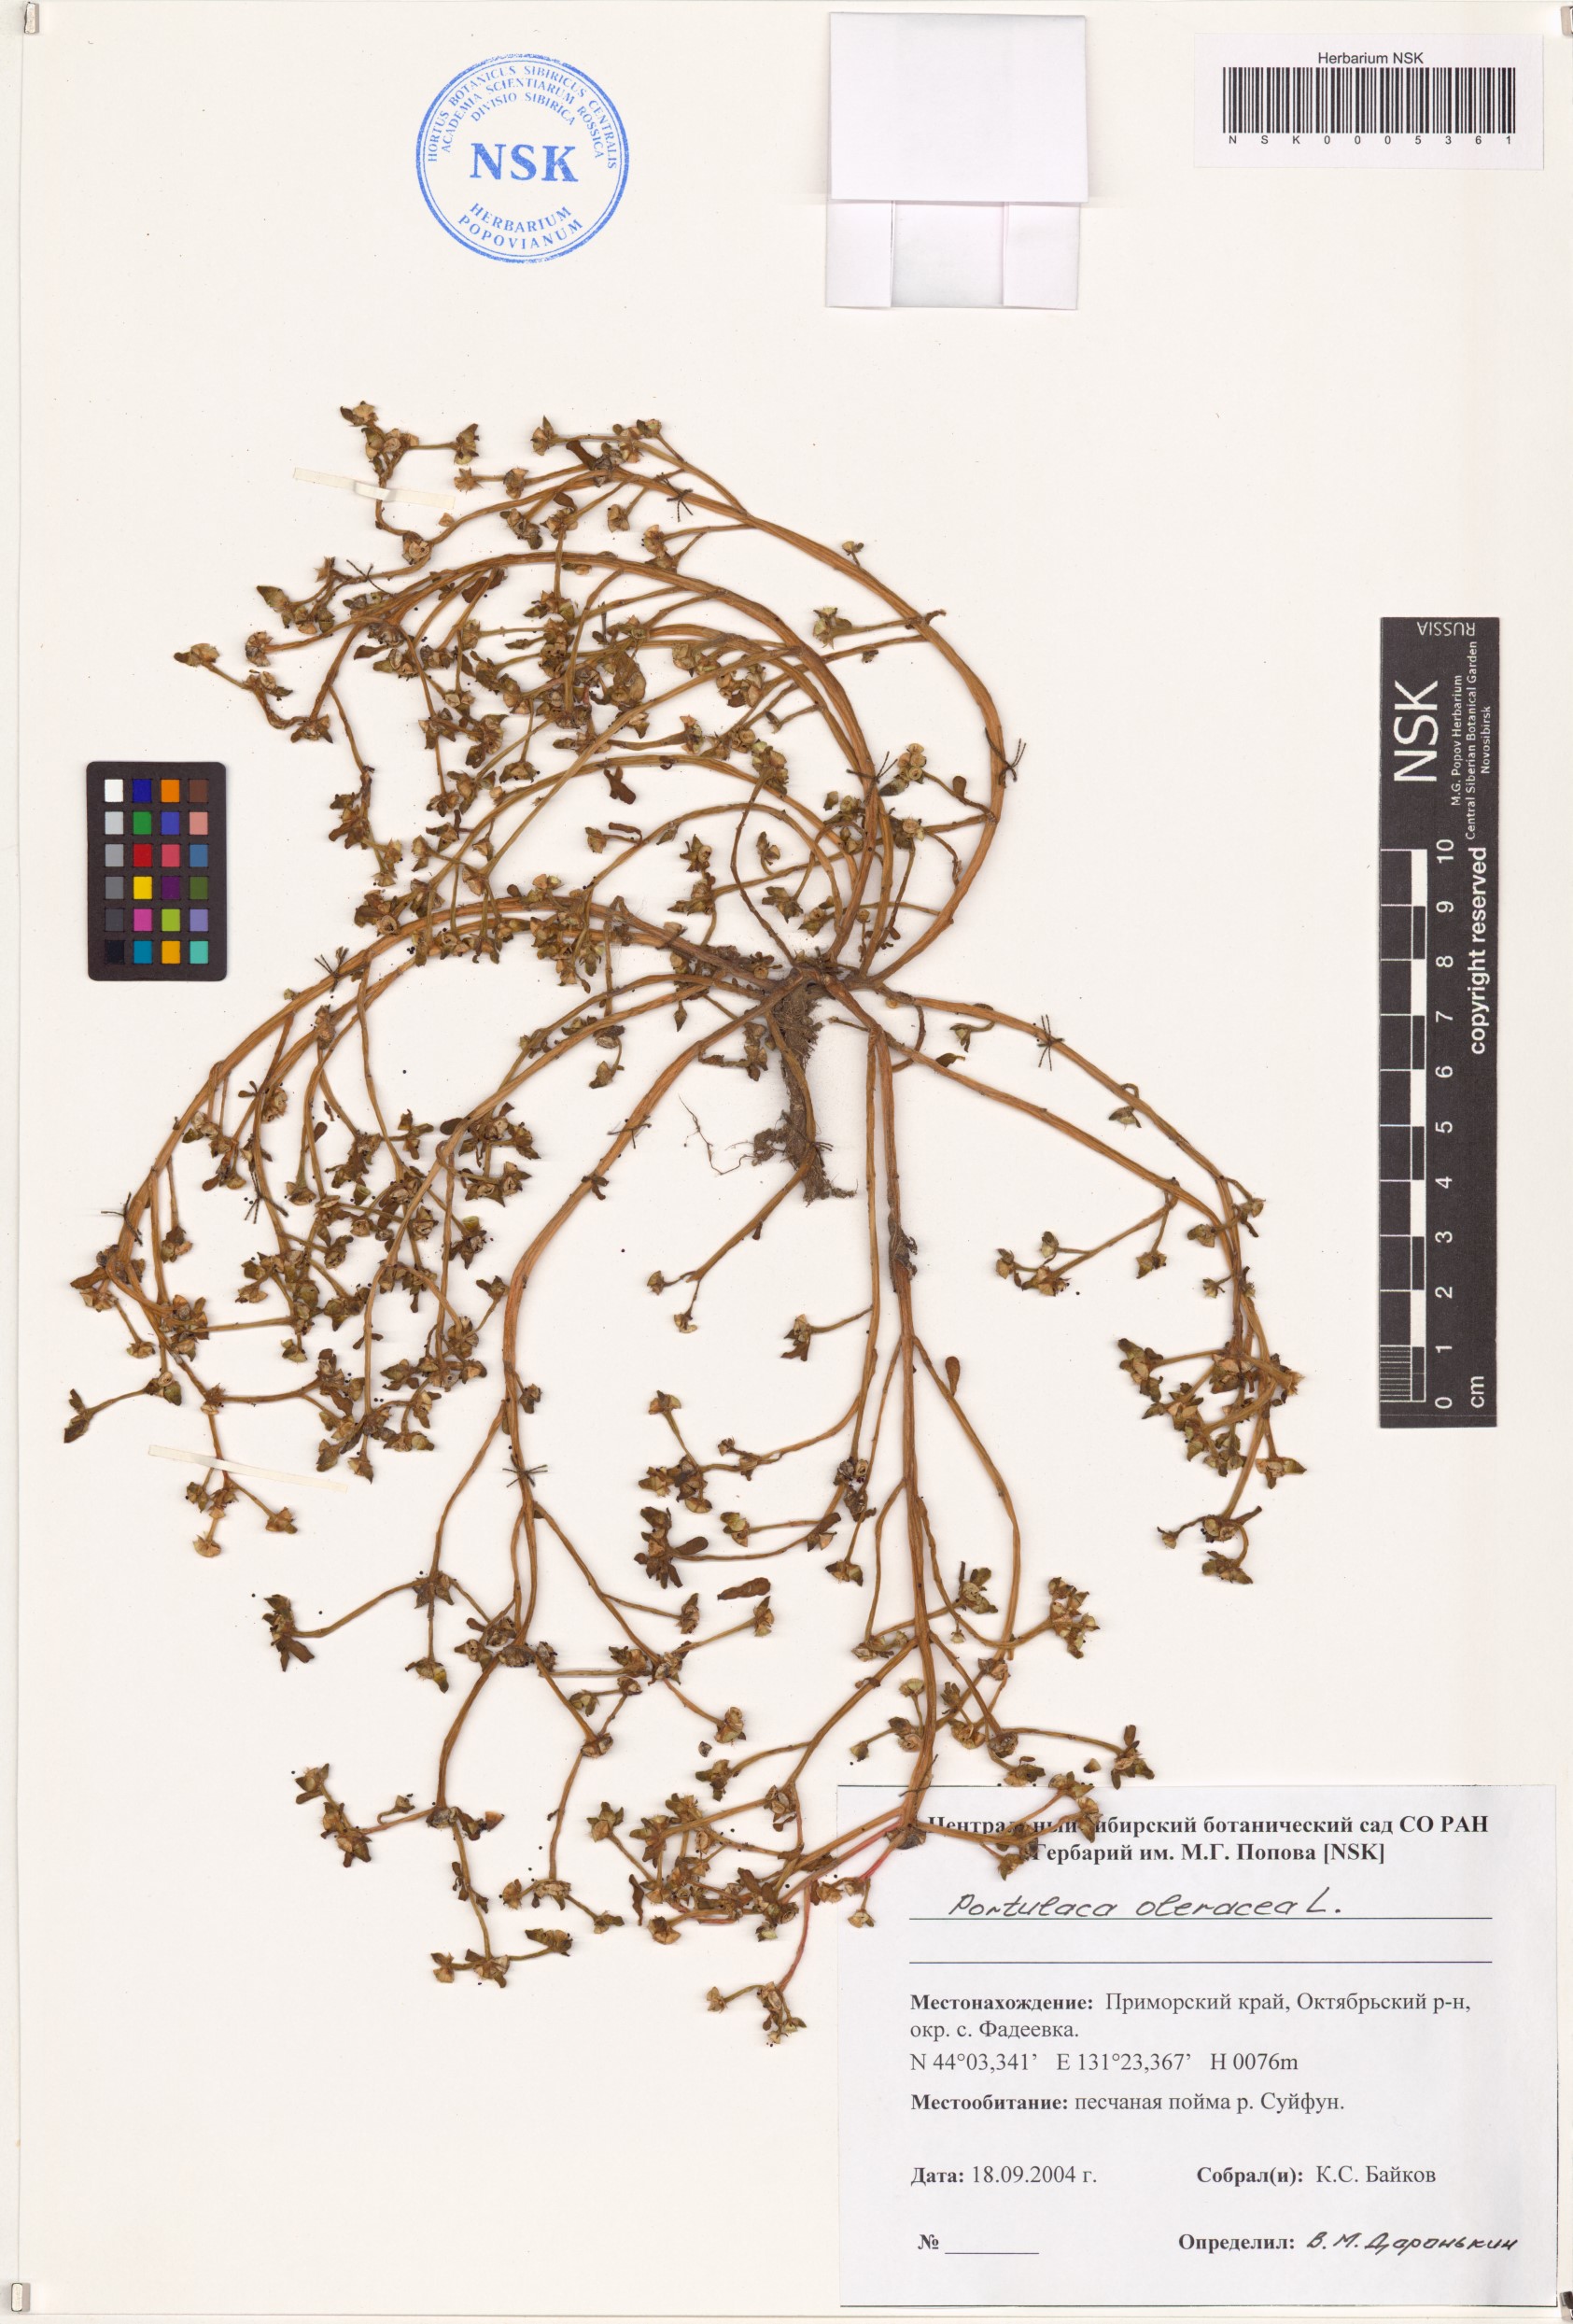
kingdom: Plantae
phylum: Tracheophyta
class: Magnoliopsida
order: Caryophyllales
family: Portulacaceae
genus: Portulaca
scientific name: Portulaca oleracea
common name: Common purslane
